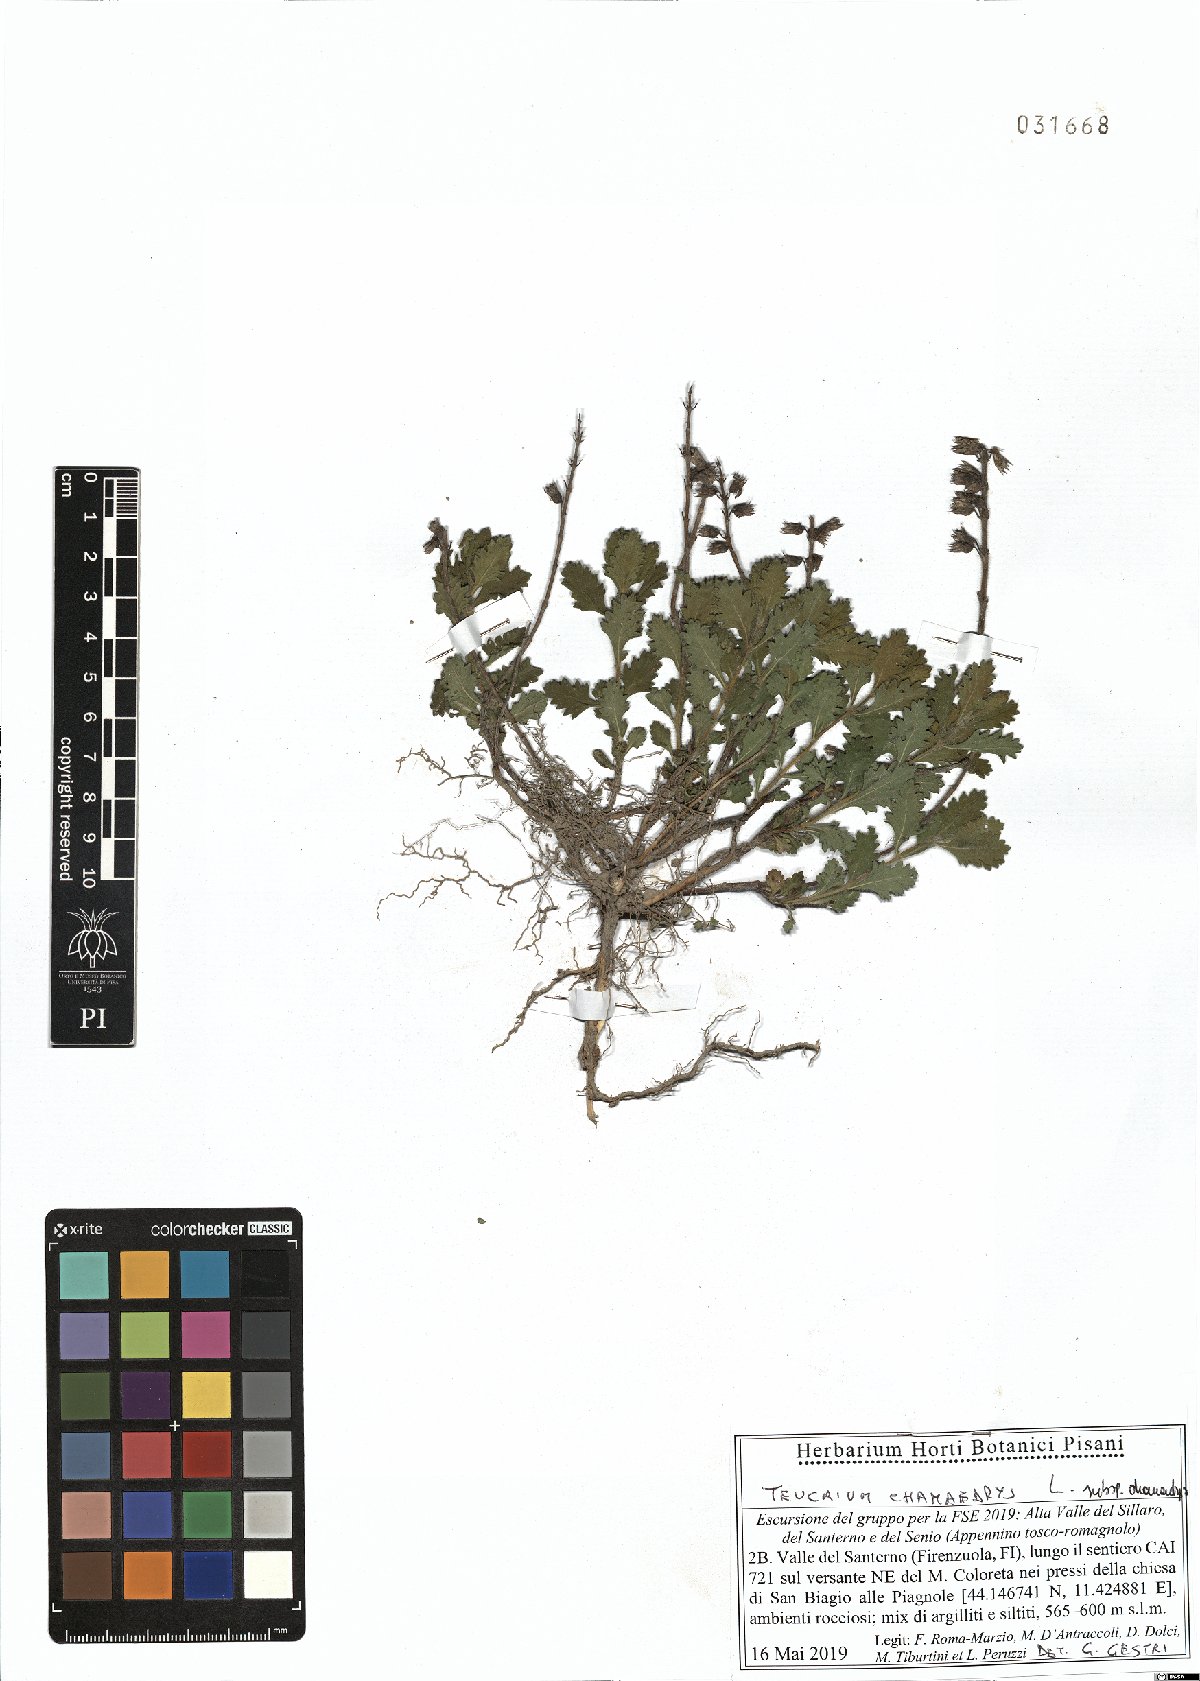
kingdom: Plantae
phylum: Tracheophyta
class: Magnoliopsida
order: Lamiales
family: Lamiaceae
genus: Teucrium
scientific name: Teucrium chamaedrys
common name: Wall germander
